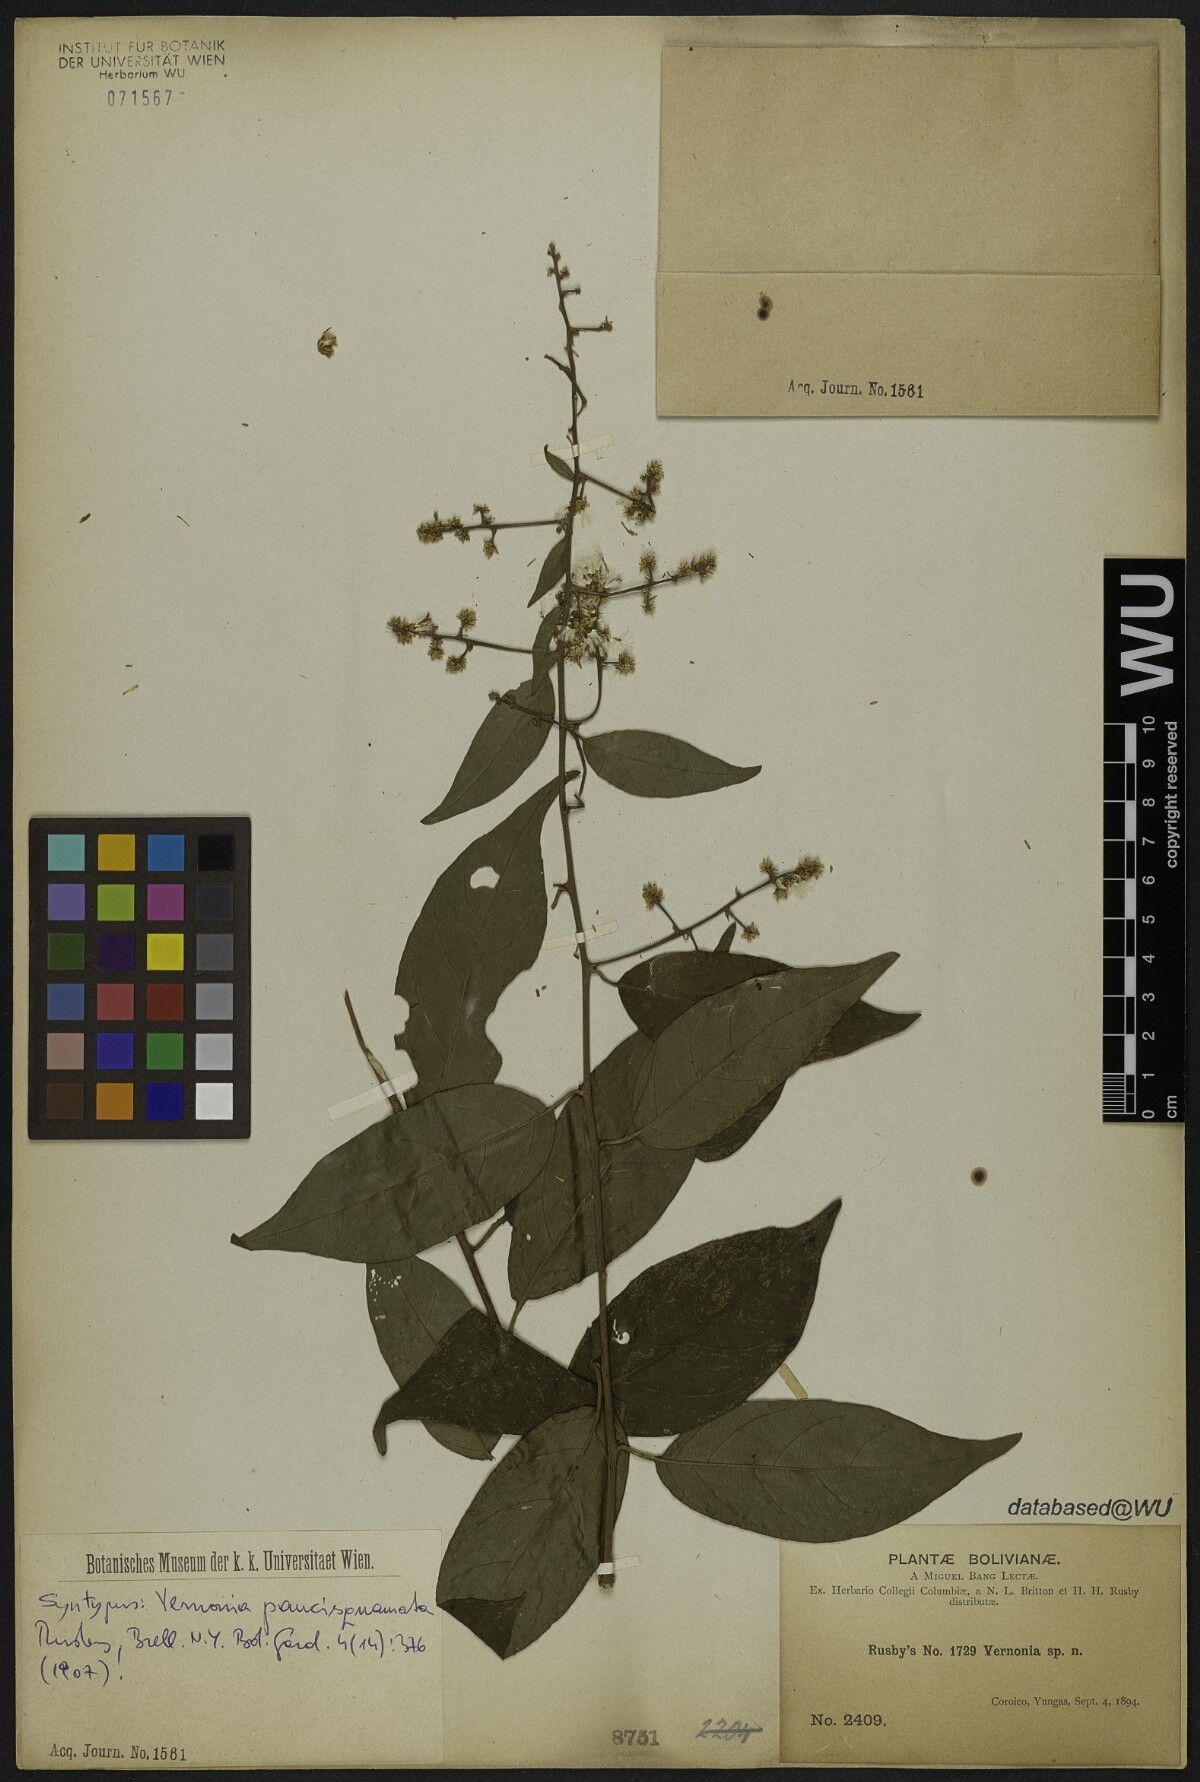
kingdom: Plantae
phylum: Tracheophyta
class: Magnoliopsida
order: Asterales
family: Asteraceae
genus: Critoniopsis
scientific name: Critoniopsis boliviana
